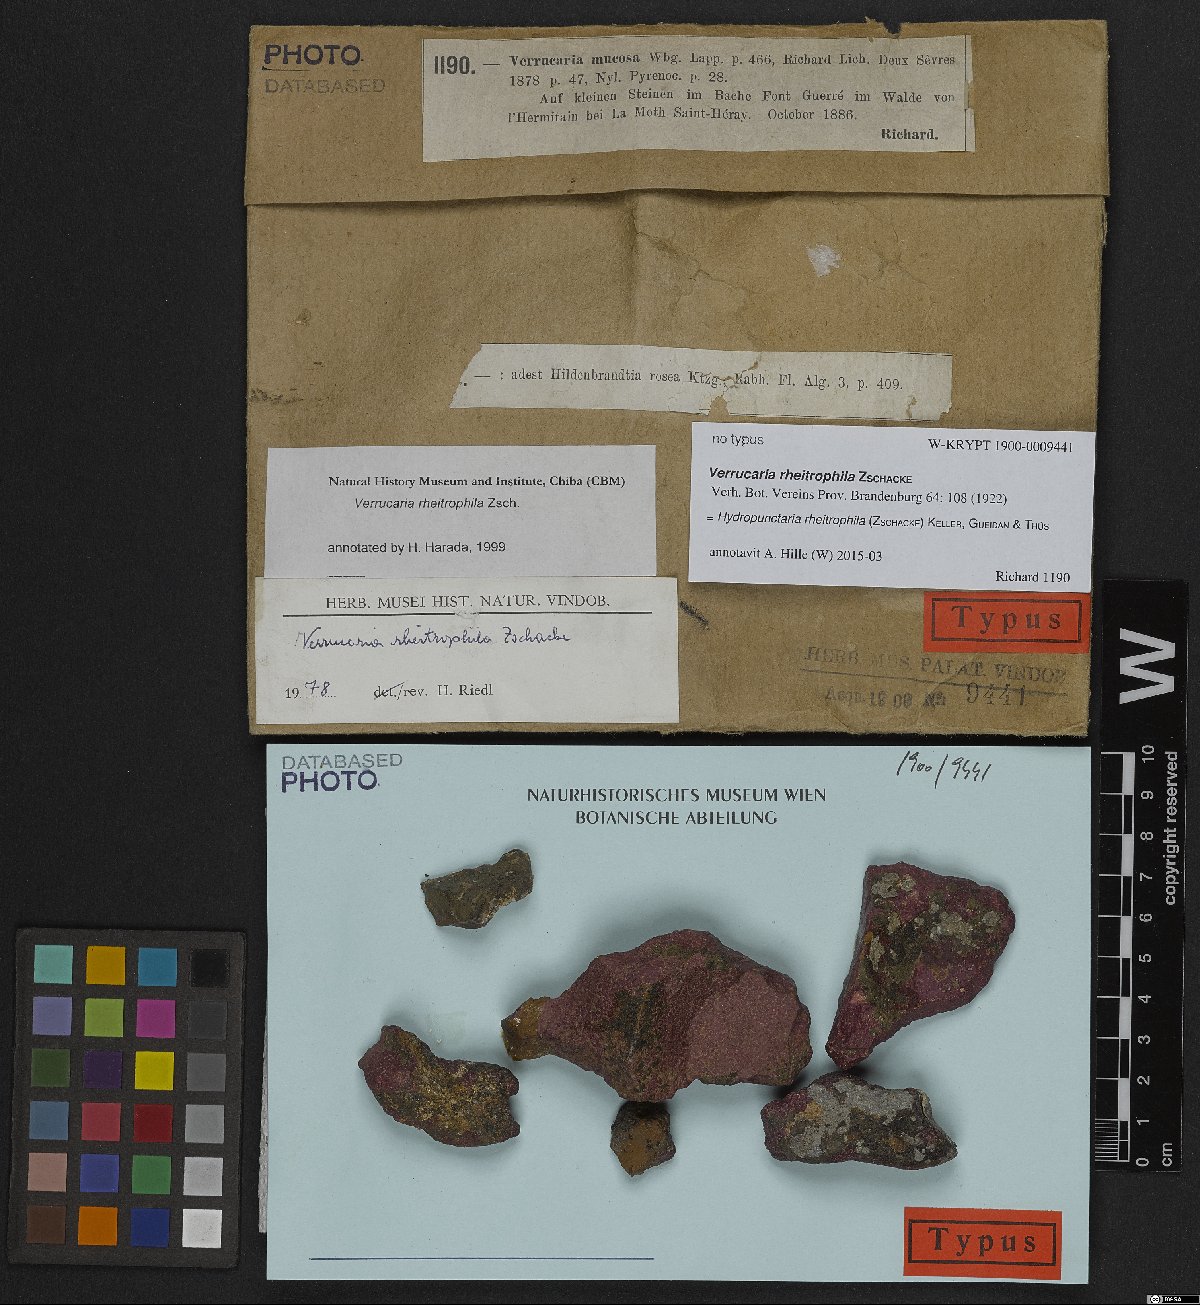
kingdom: Fungi
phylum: Ascomycota
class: Eurotiomycetes
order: Verrucariales
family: Verrucariaceae
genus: Hydropunctaria
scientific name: Hydropunctaria rheitrophila
